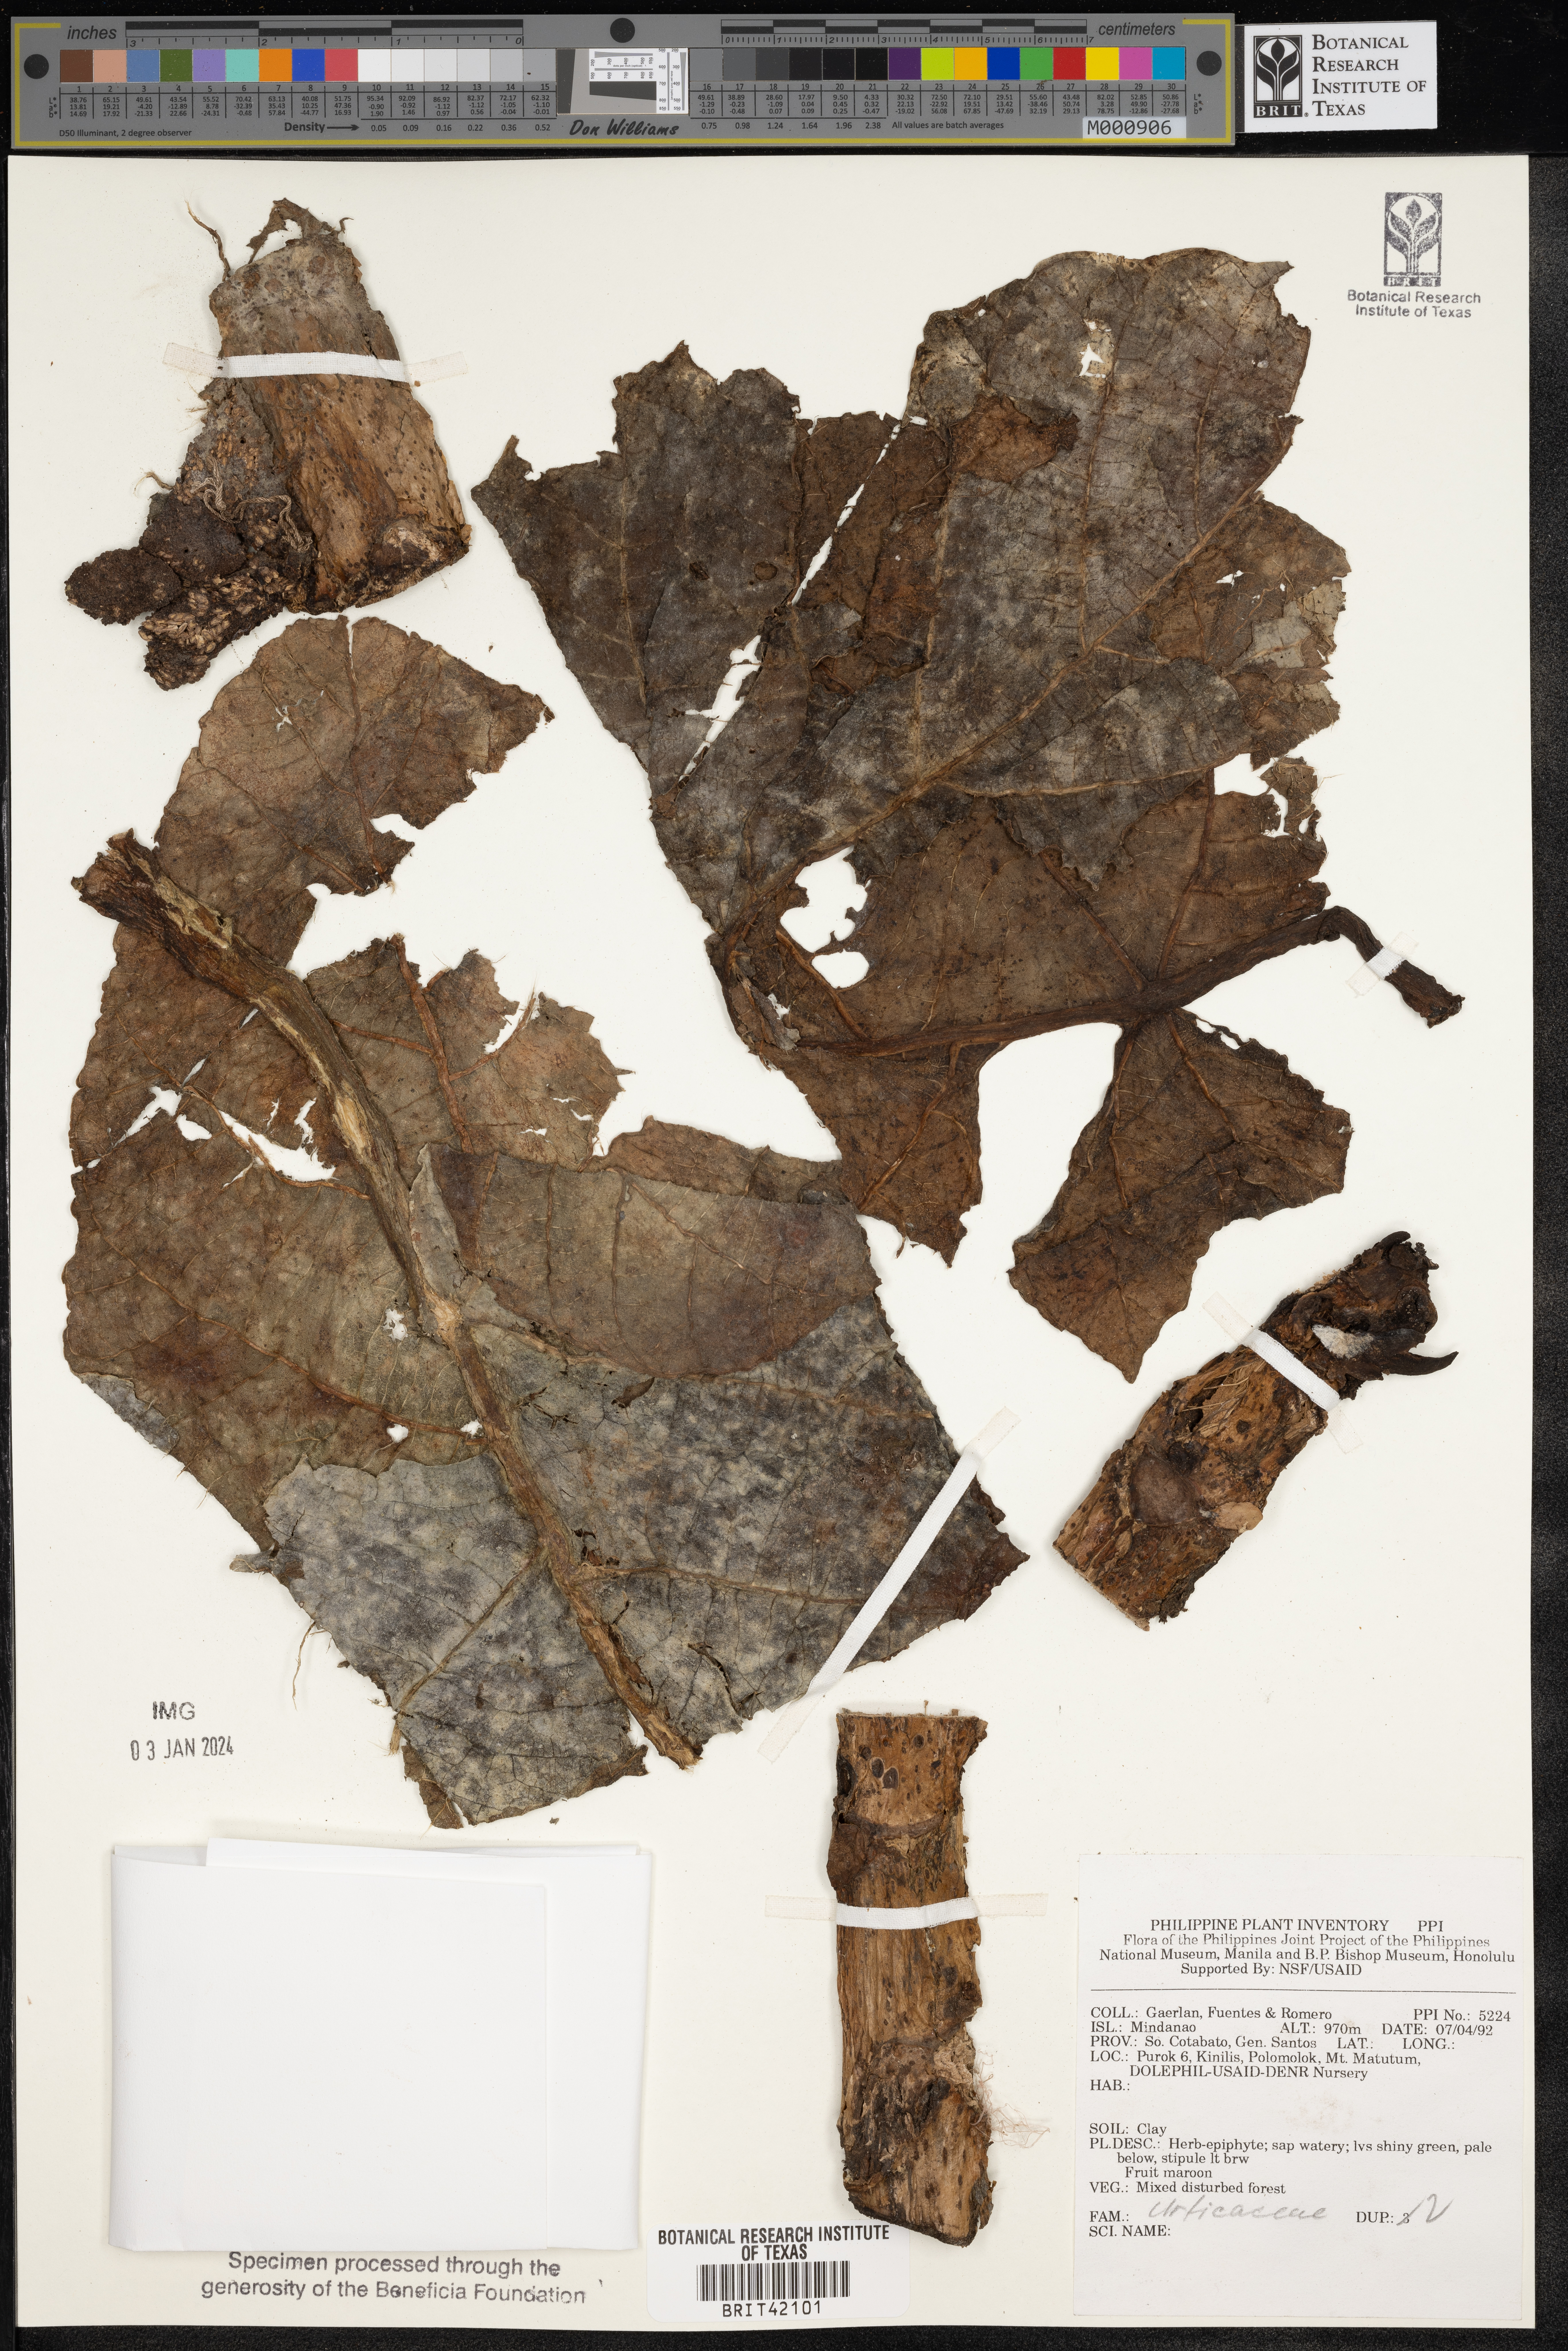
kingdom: Plantae
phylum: Tracheophyta
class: Magnoliopsida
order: Rosales
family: Urticaceae
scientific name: Urticaceae
